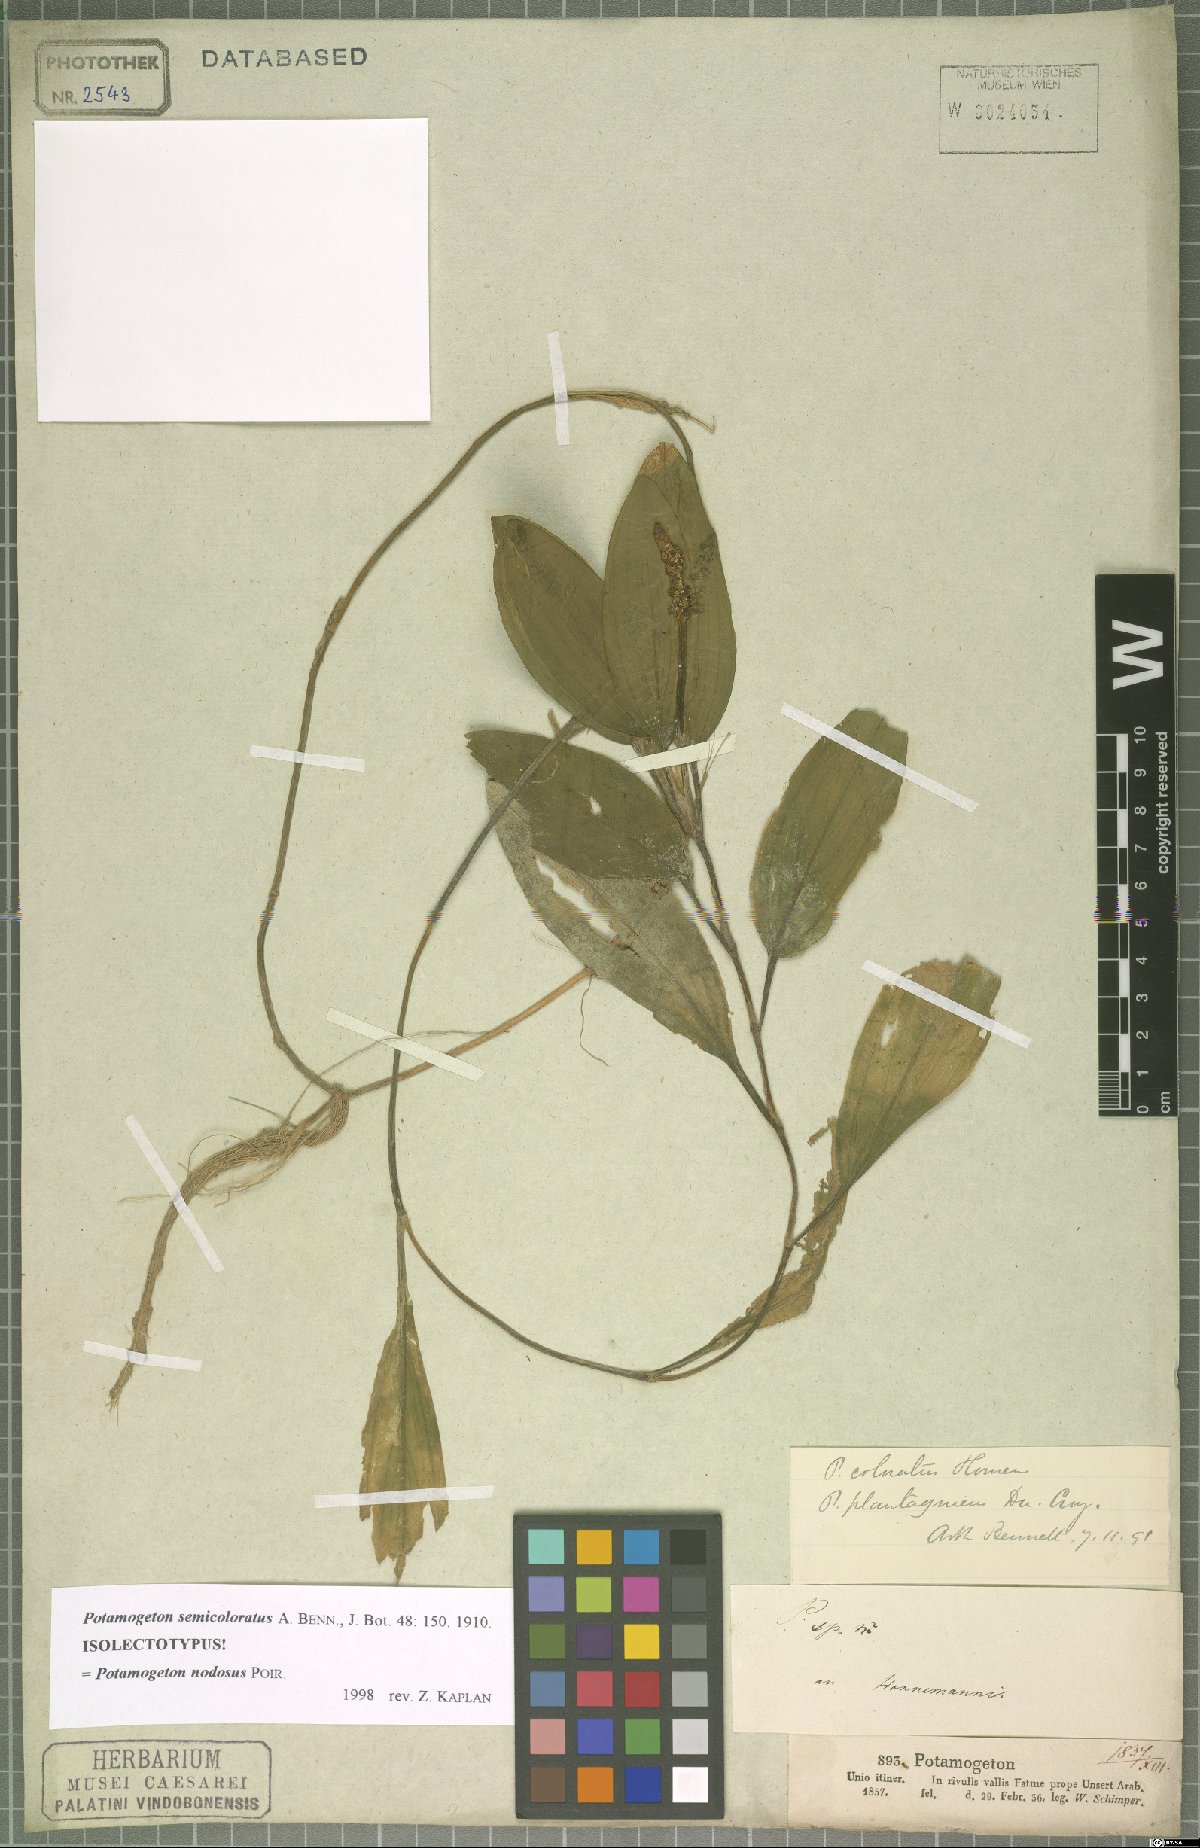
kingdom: Plantae
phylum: Tracheophyta
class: Liliopsida
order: Alismatales
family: Potamogetonaceae
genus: Potamogeton
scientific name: Potamogeton nodosus
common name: Loddon pondweed
